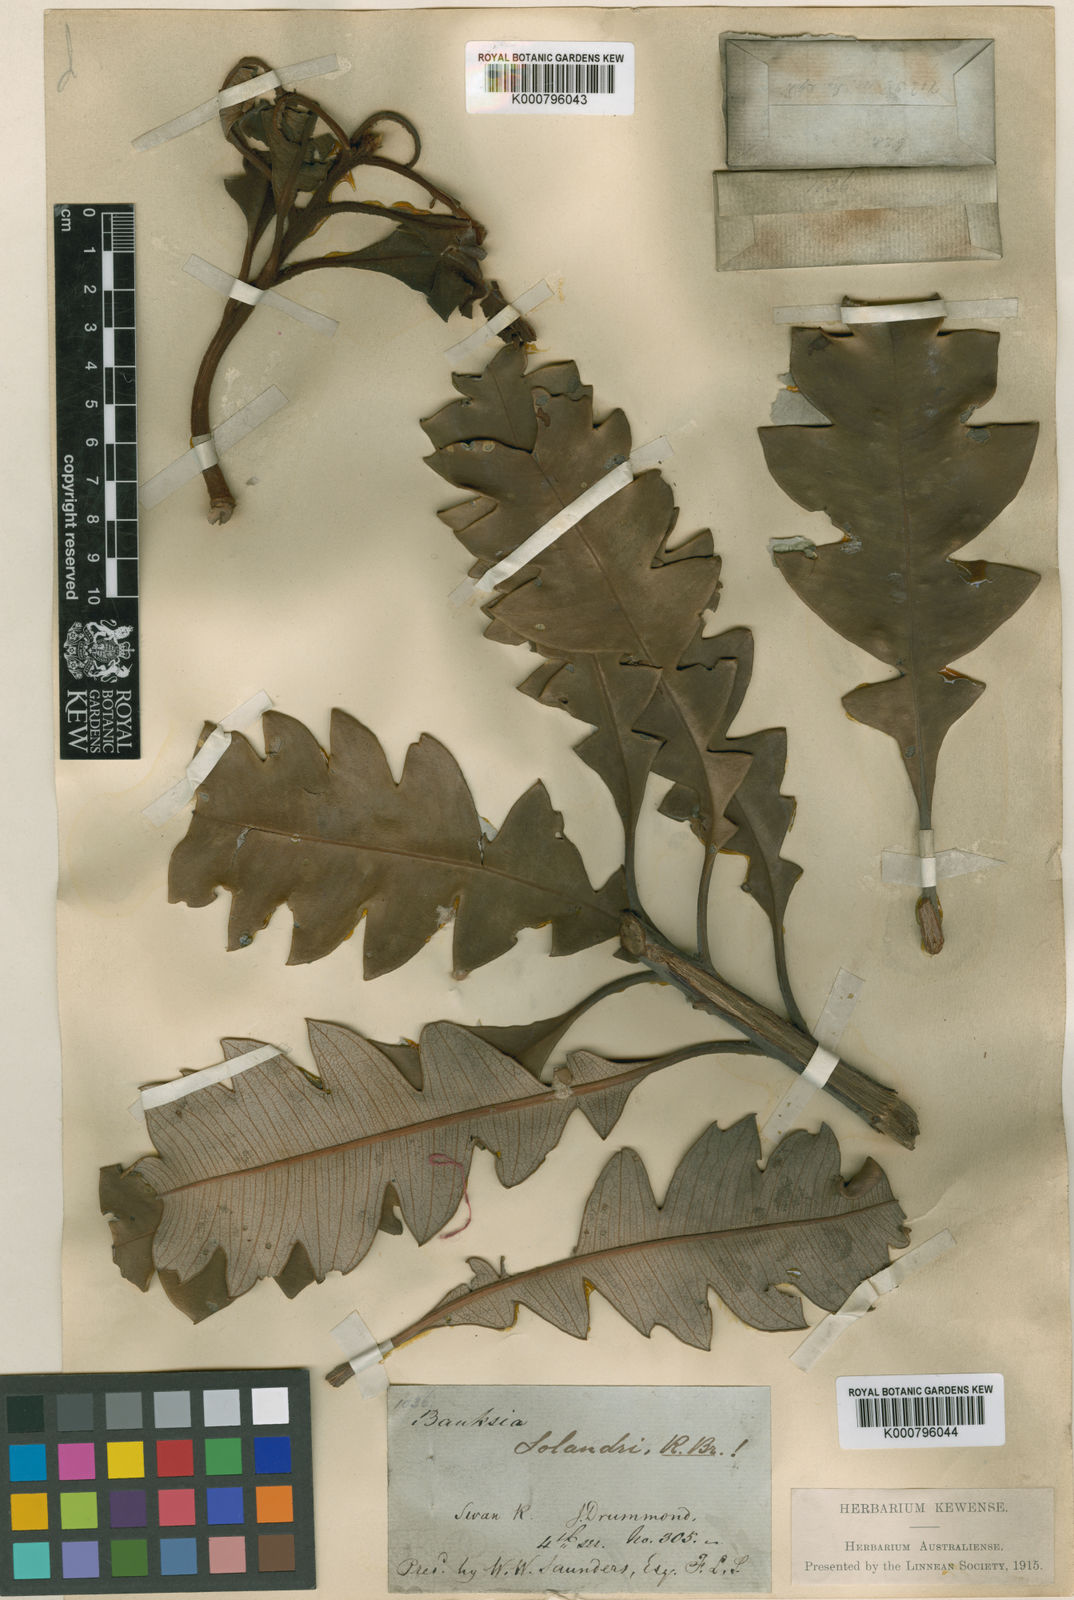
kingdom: Plantae
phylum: Tracheophyta
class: Magnoliopsida
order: Proteales
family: Proteaceae
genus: Banksia
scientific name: Banksia solandri
